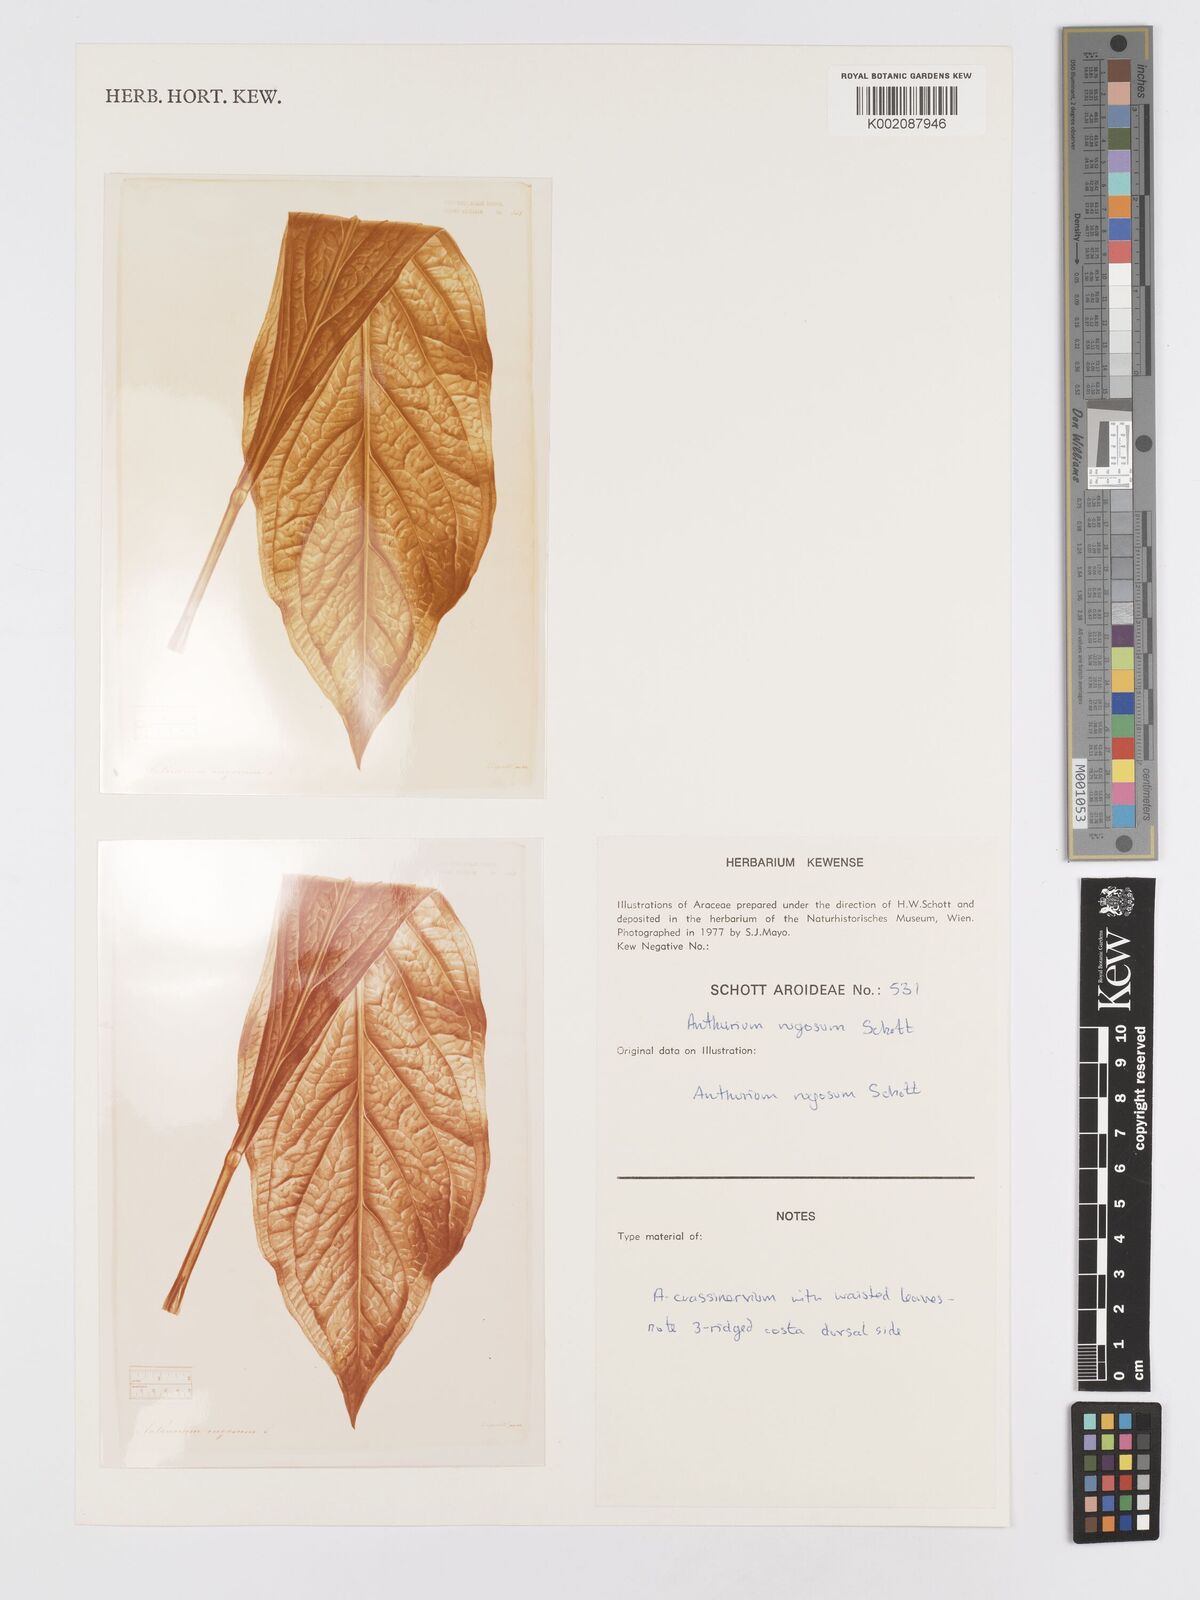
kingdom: Plantae
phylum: Tracheophyta
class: Liliopsida
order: Alismatales
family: Araceae
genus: Anthurium
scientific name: Anthurium crassinervium
